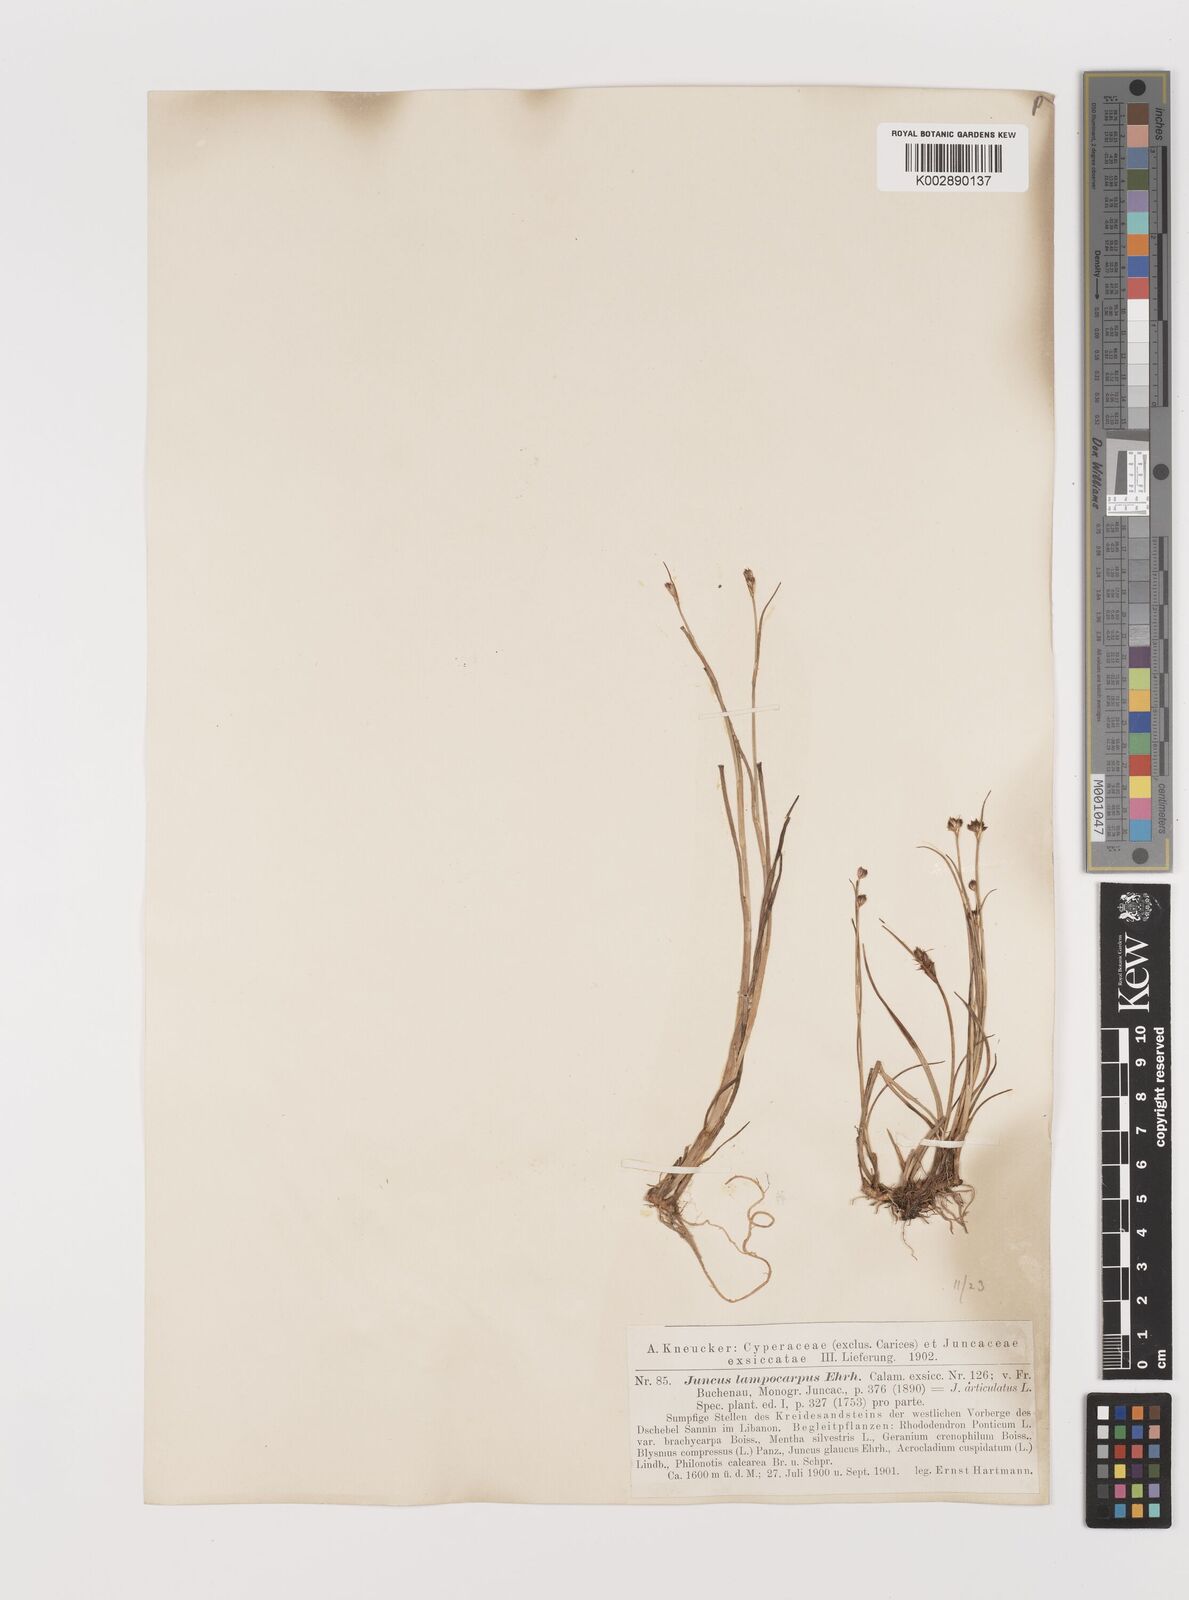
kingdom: Plantae
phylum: Tracheophyta
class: Liliopsida
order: Poales
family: Juncaceae
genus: Juncus
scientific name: Juncus articulatus
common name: Jointed rush
